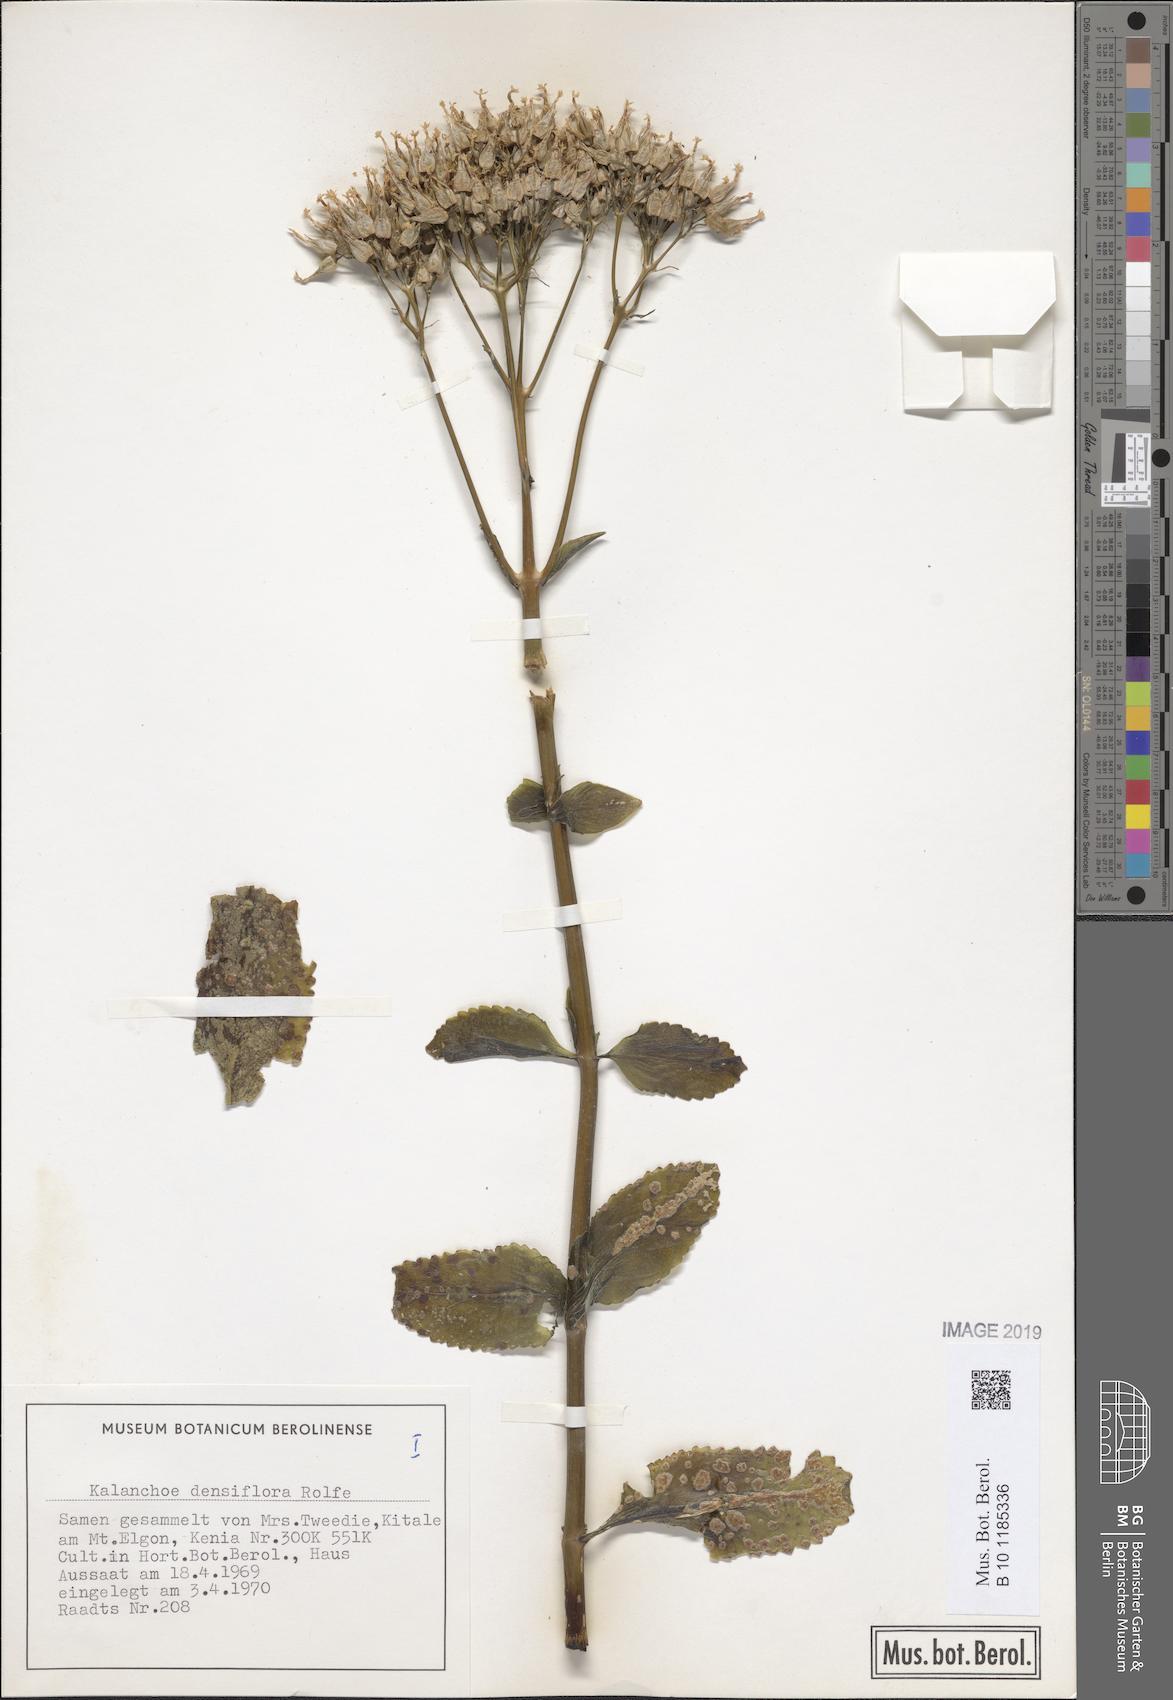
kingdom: Plantae
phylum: Tracheophyta
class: Magnoliopsida
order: Saxifragales
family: Crassulaceae
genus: Kalanchoe
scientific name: Kalanchoe densiflora
